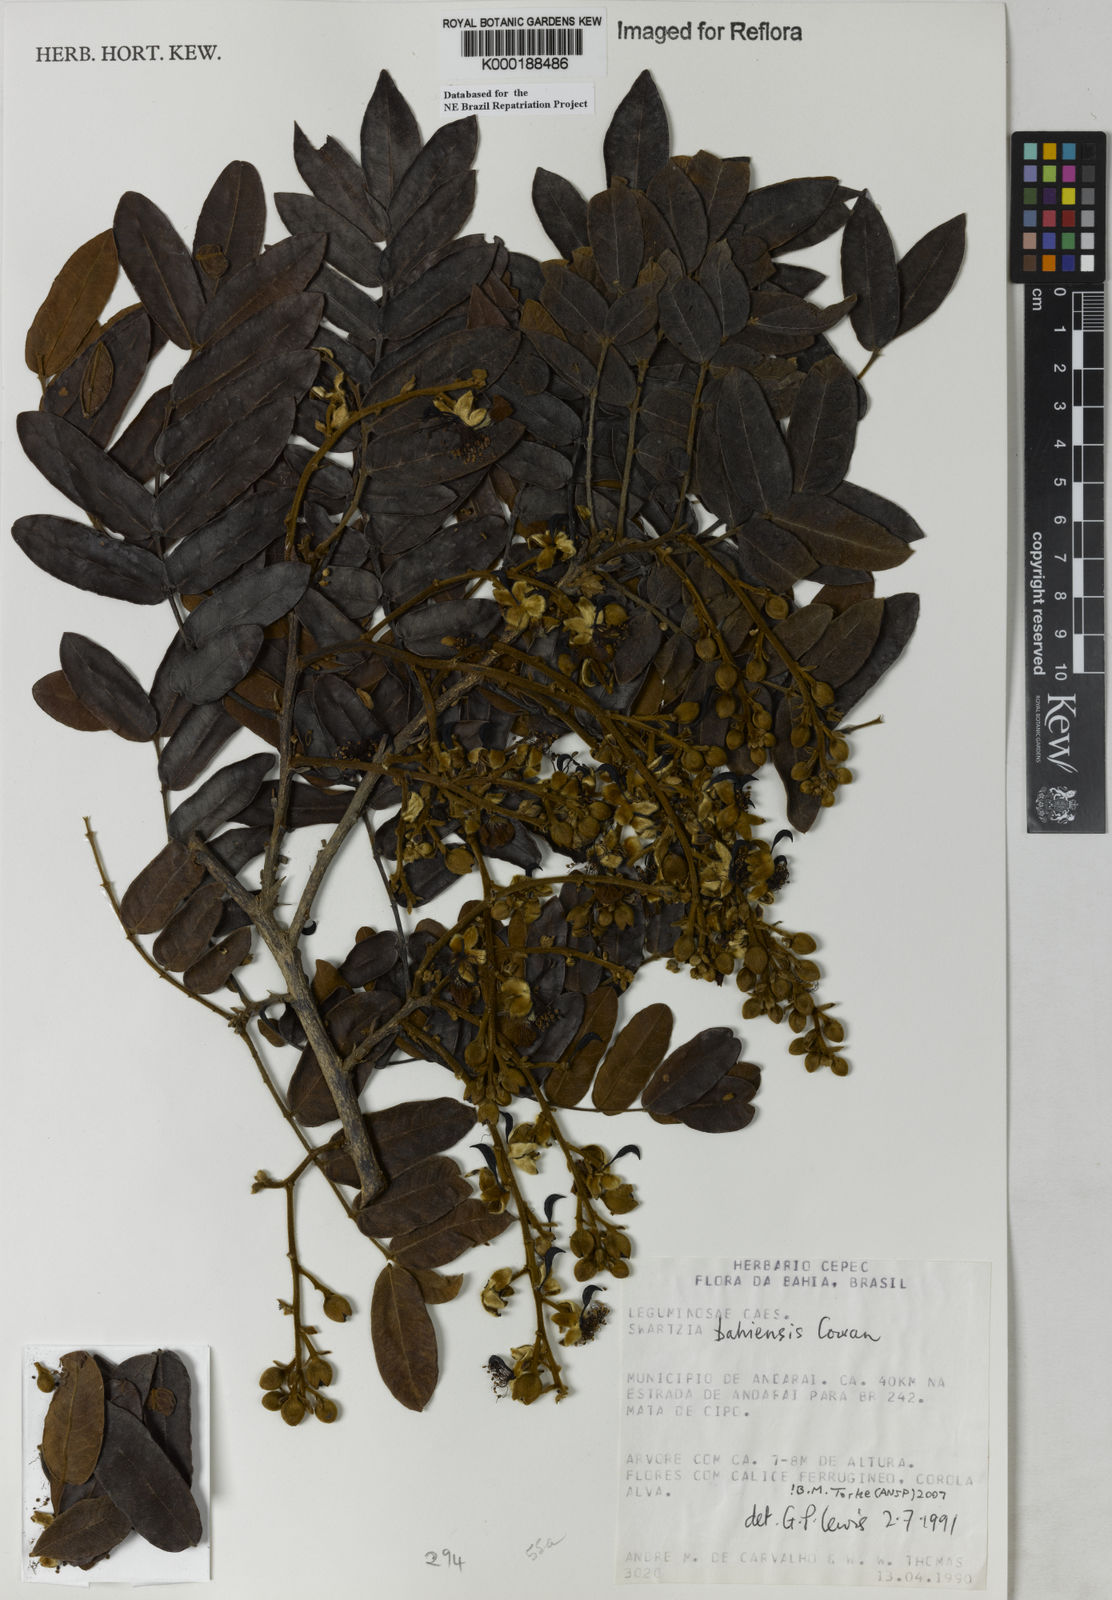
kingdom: Plantae
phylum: Tracheophyta
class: Magnoliopsida
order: Fabales
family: Fabaceae
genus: Swartzia
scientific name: Swartzia bahiensis
